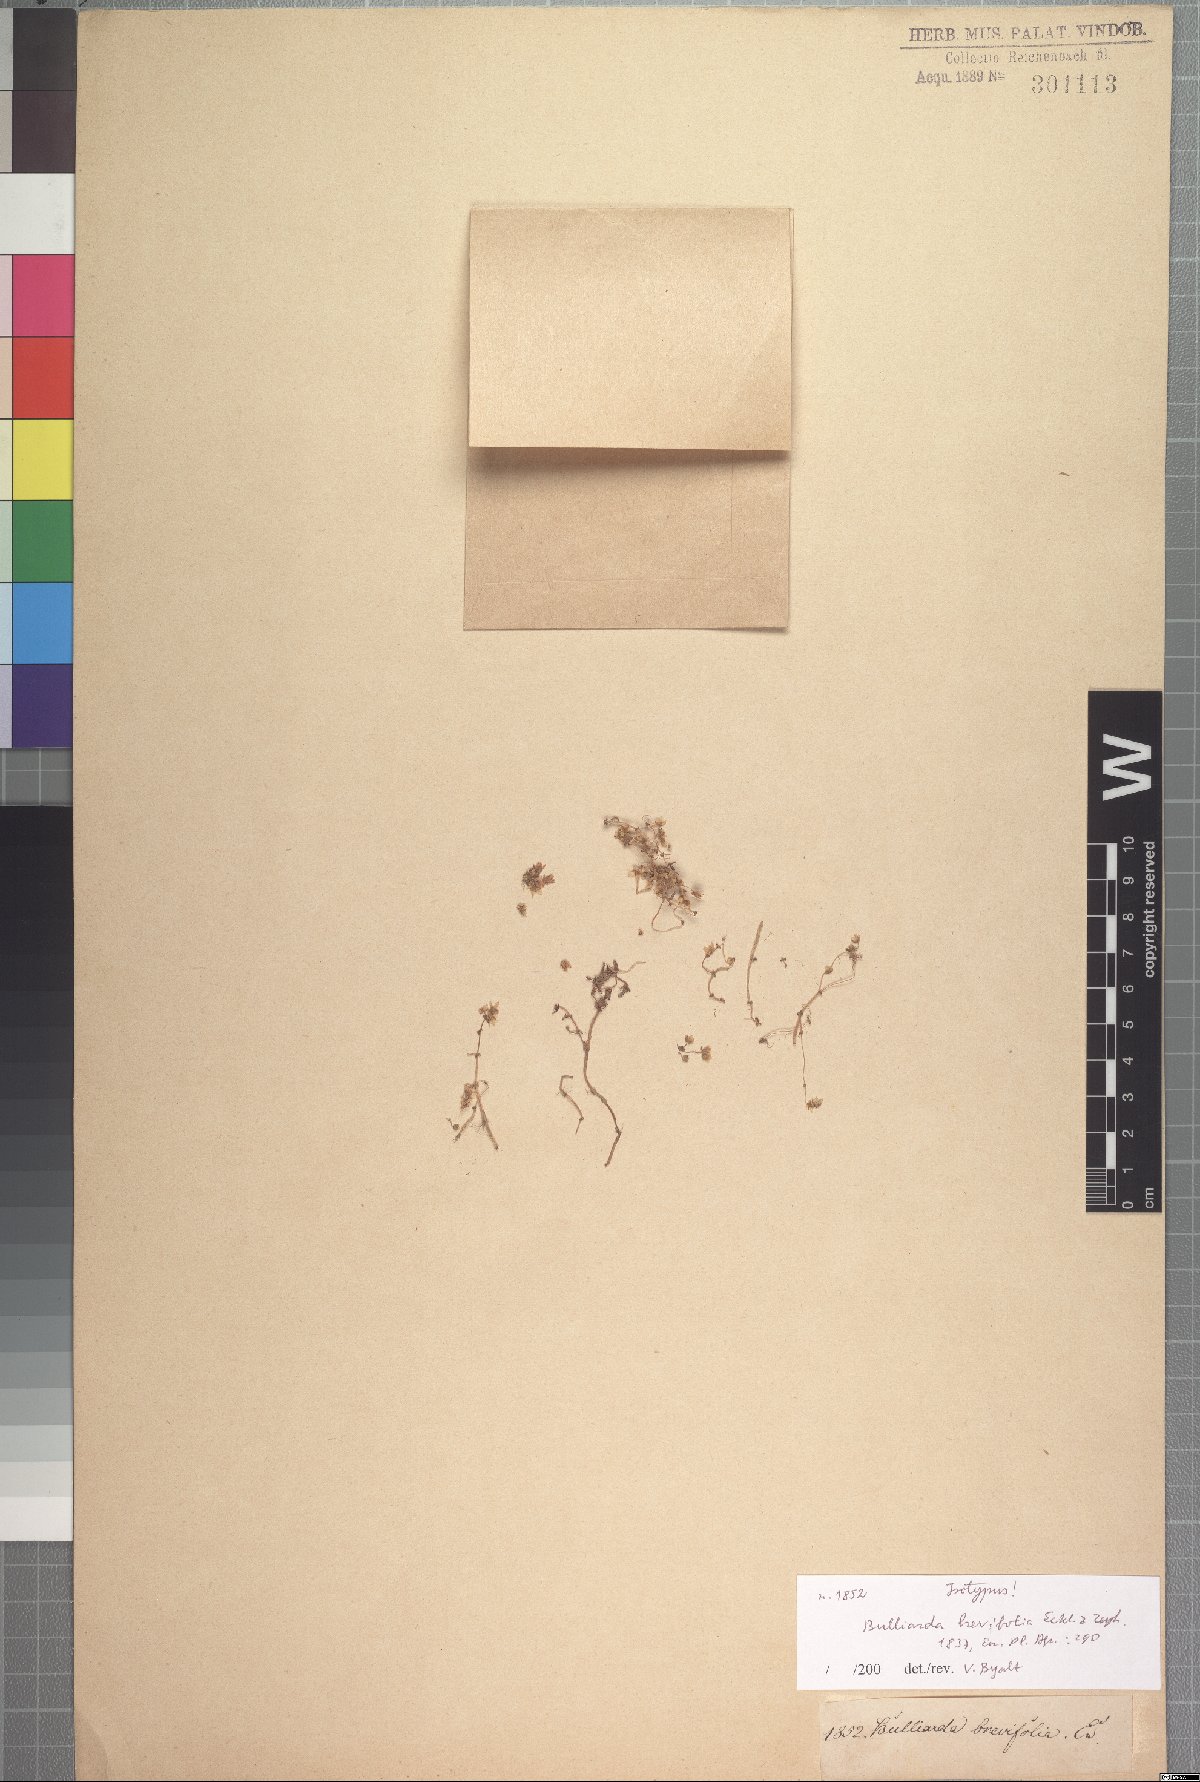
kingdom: Plantae
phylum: Tracheophyta
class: Magnoliopsida
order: Saxifragales
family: Crassulaceae
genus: Crassula
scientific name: Crassula decumbens
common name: Scilly pigmyweed
